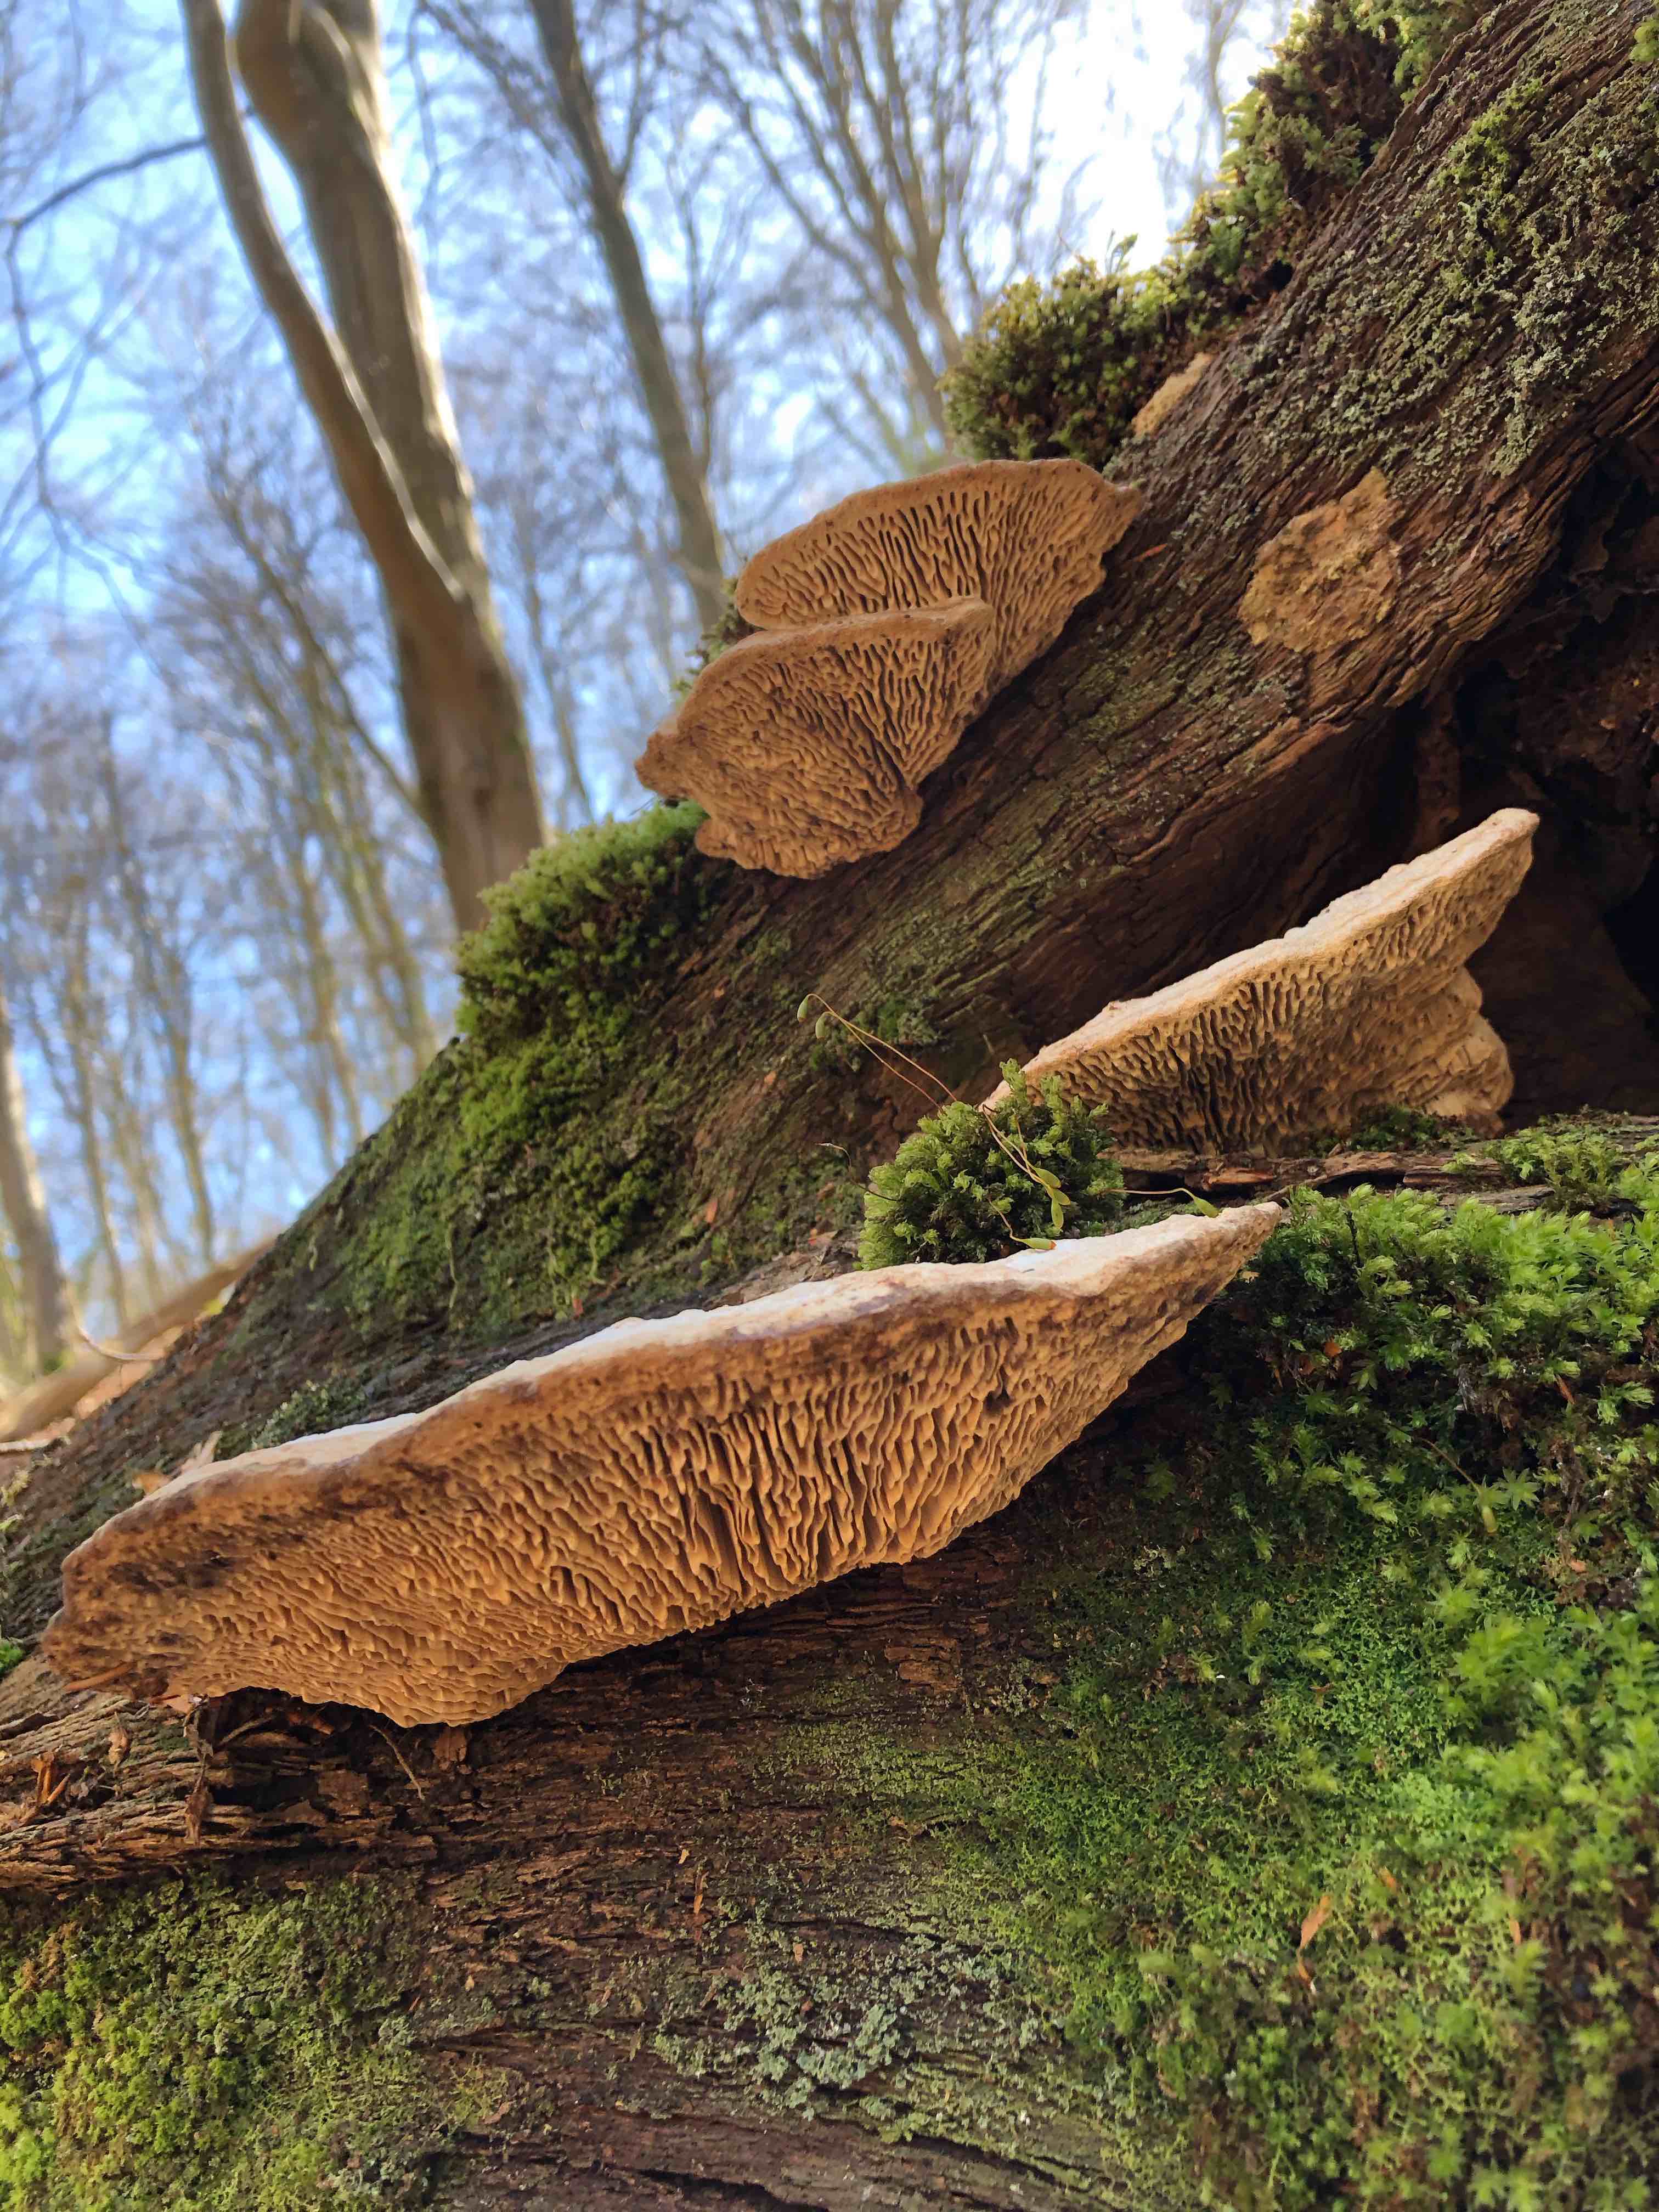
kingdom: Fungi
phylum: Basidiomycota
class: Agaricomycetes
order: Polyporales
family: Fomitopsidaceae
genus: Daedalea
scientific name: Daedalea quercina
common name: ege-labyrintsvamp
